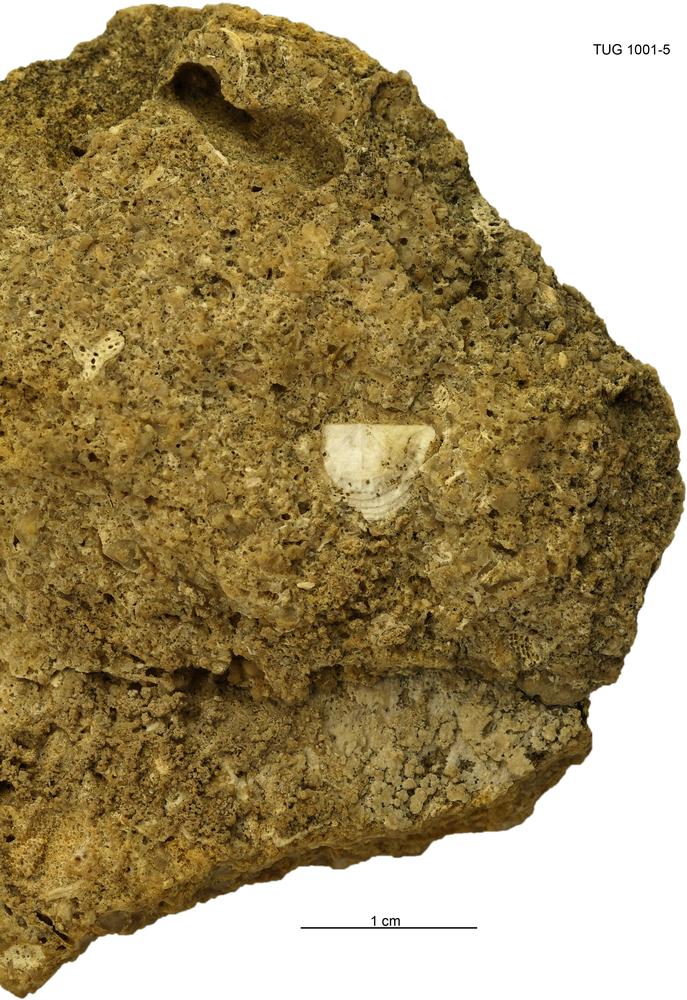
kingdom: Animalia
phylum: Brachiopoda
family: Strophomenidae
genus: Holtedahlina
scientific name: Holtedahlina
